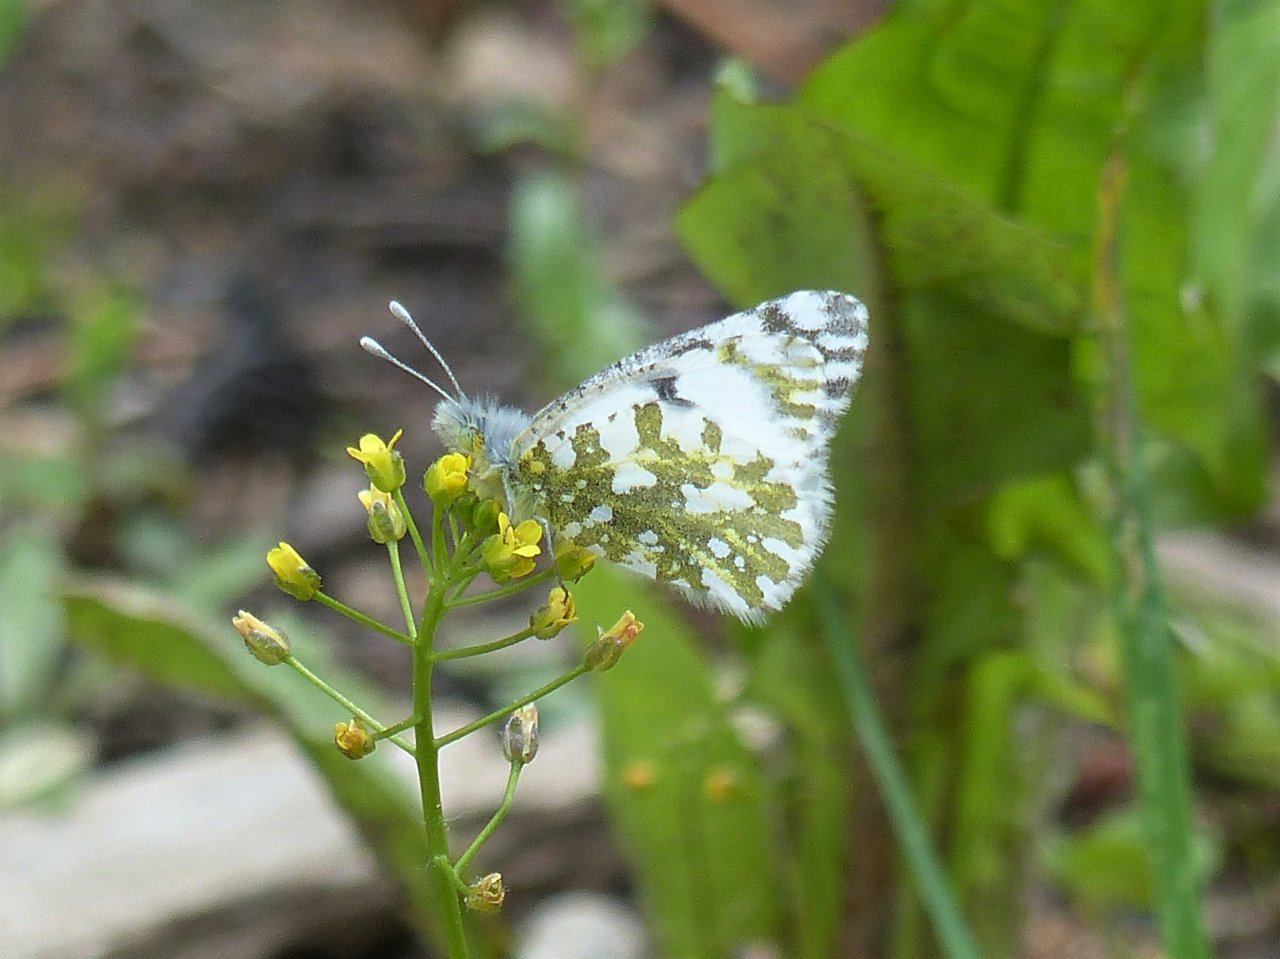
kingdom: Animalia
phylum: Arthropoda
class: Insecta
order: Lepidoptera
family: Pieridae
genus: Euchloe
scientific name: Euchloe ausonides
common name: Large Marble
